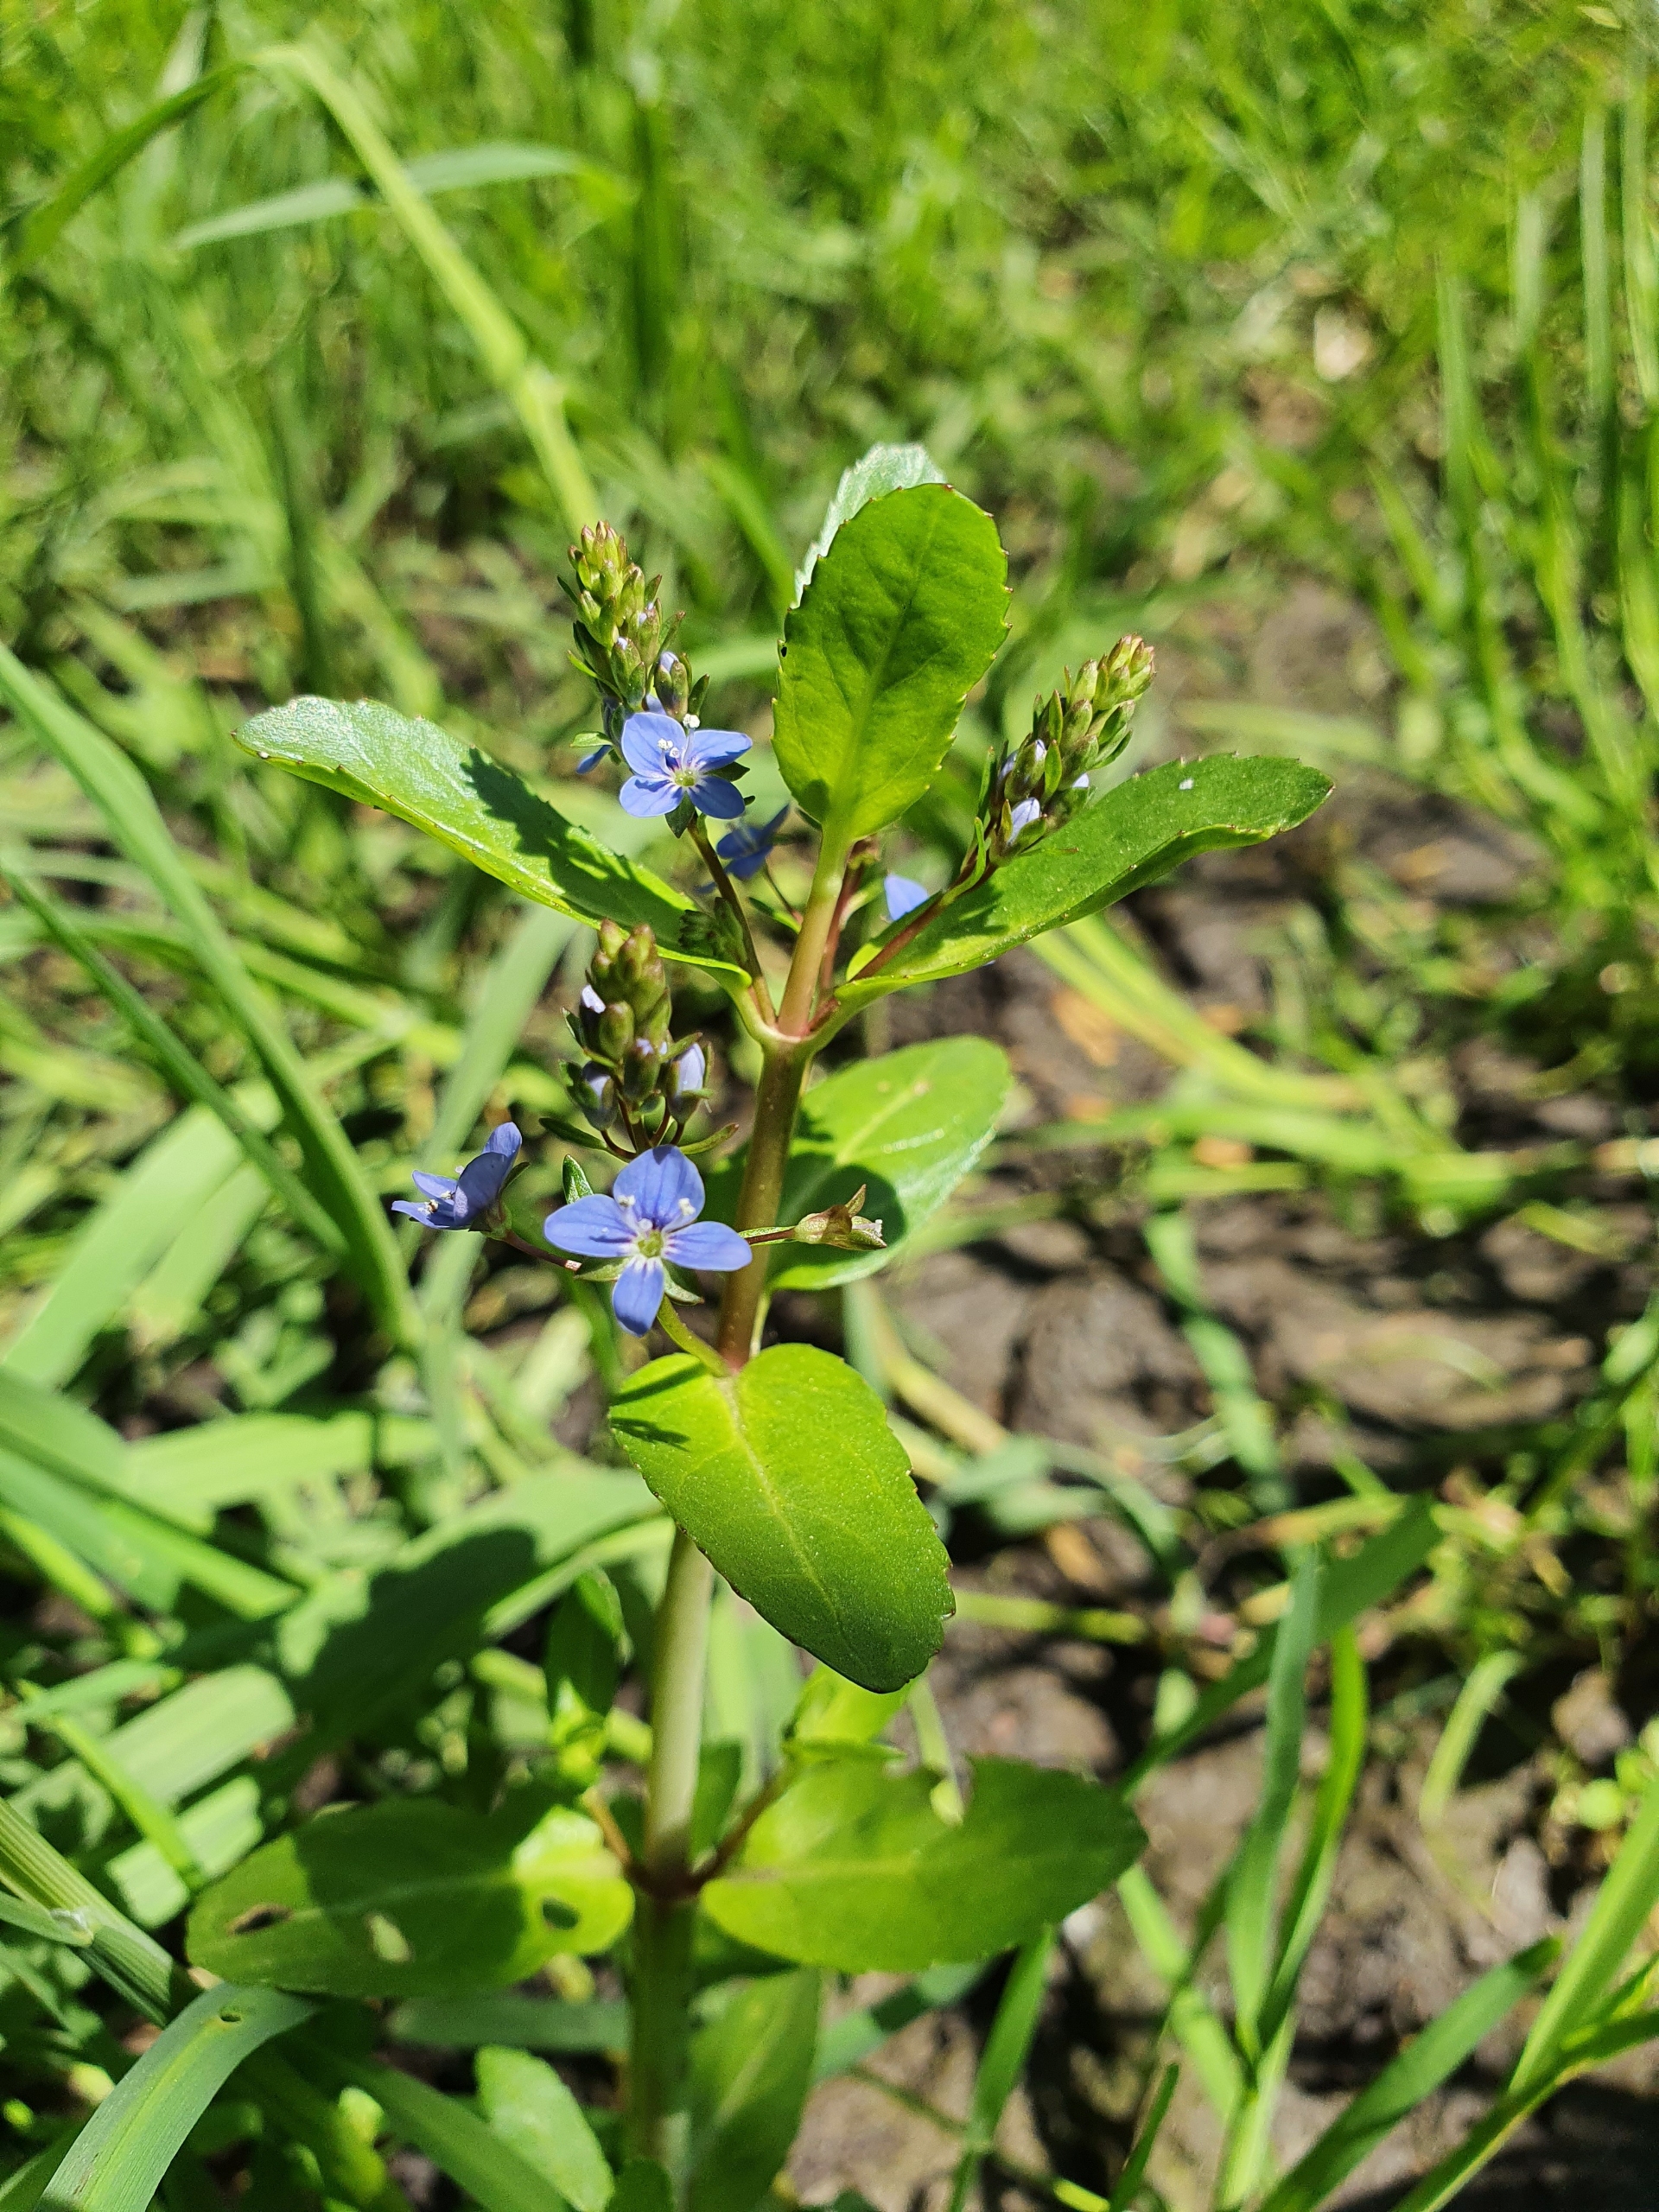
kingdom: Plantae
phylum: Tracheophyta
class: Magnoliopsida
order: Lamiales
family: Plantaginaceae
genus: Veronica
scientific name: Veronica beccabunga
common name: Tykbladet ærenpris
